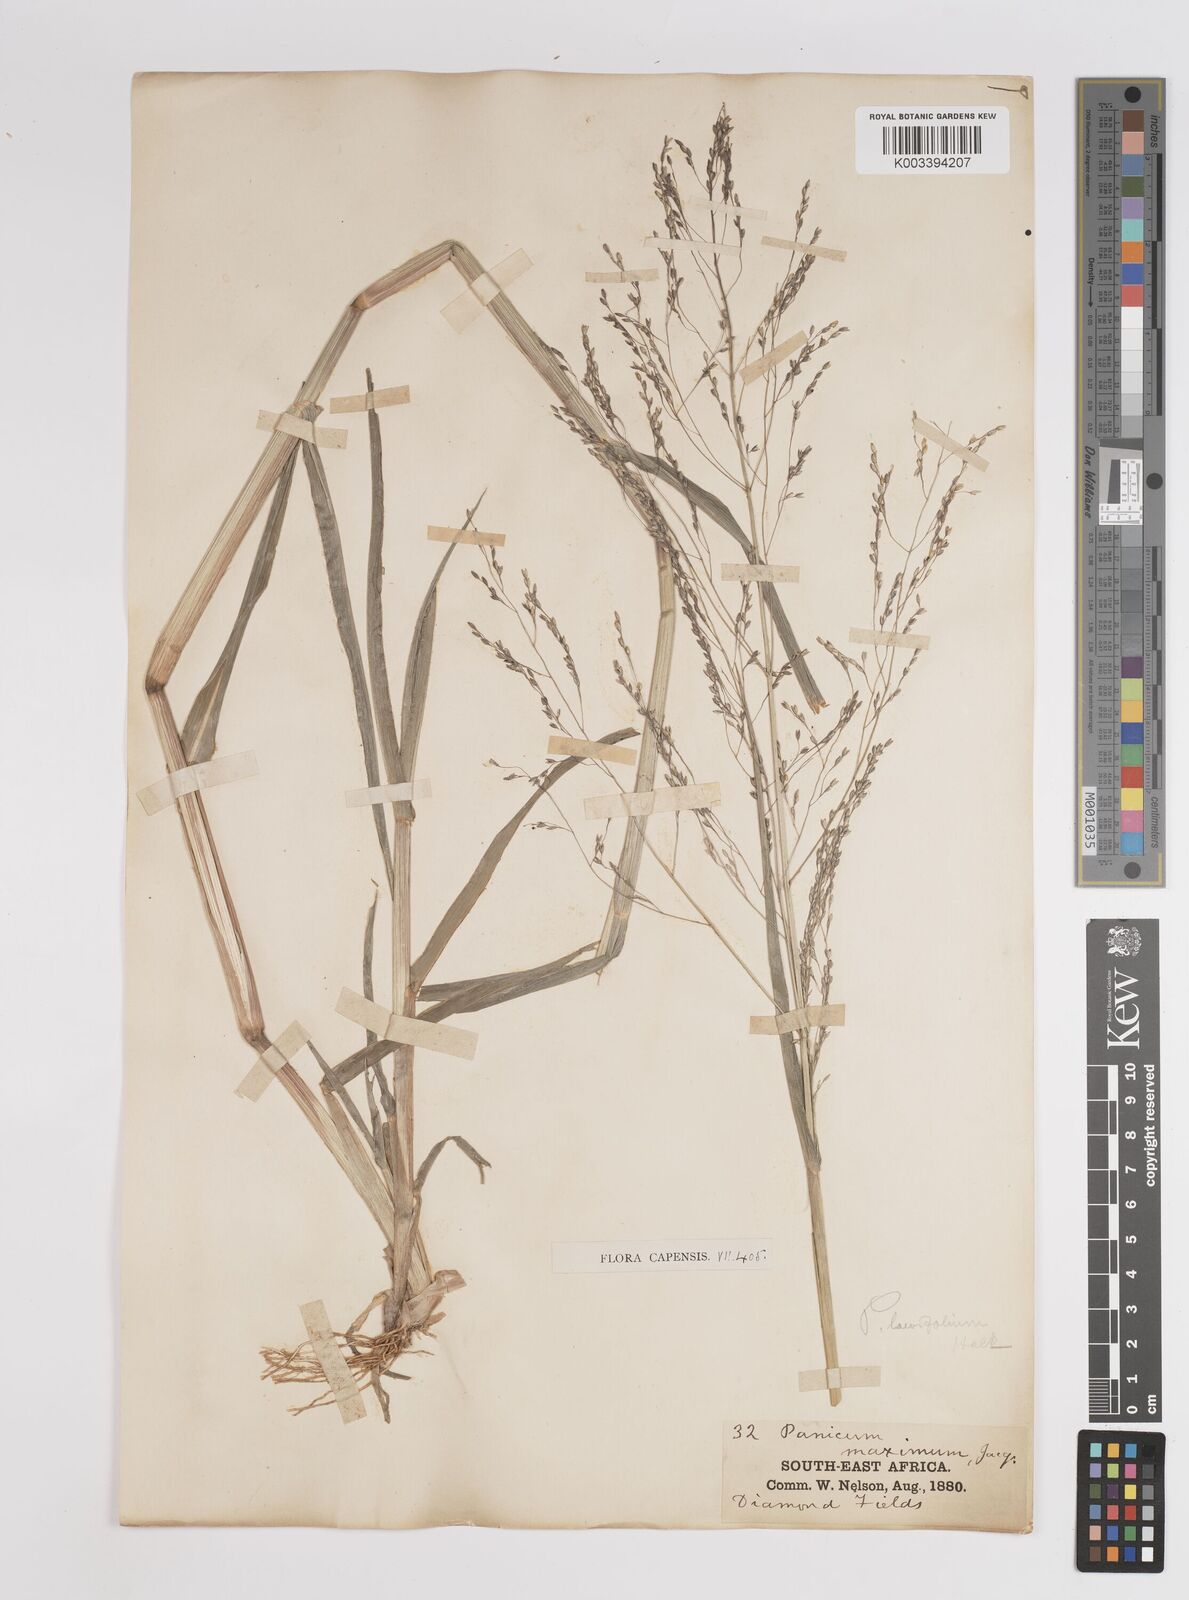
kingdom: Plantae
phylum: Tracheophyta
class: Liliopsida
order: Poales
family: Poaceae
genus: Panicum
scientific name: Panicum schinzii
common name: Sweet grass
